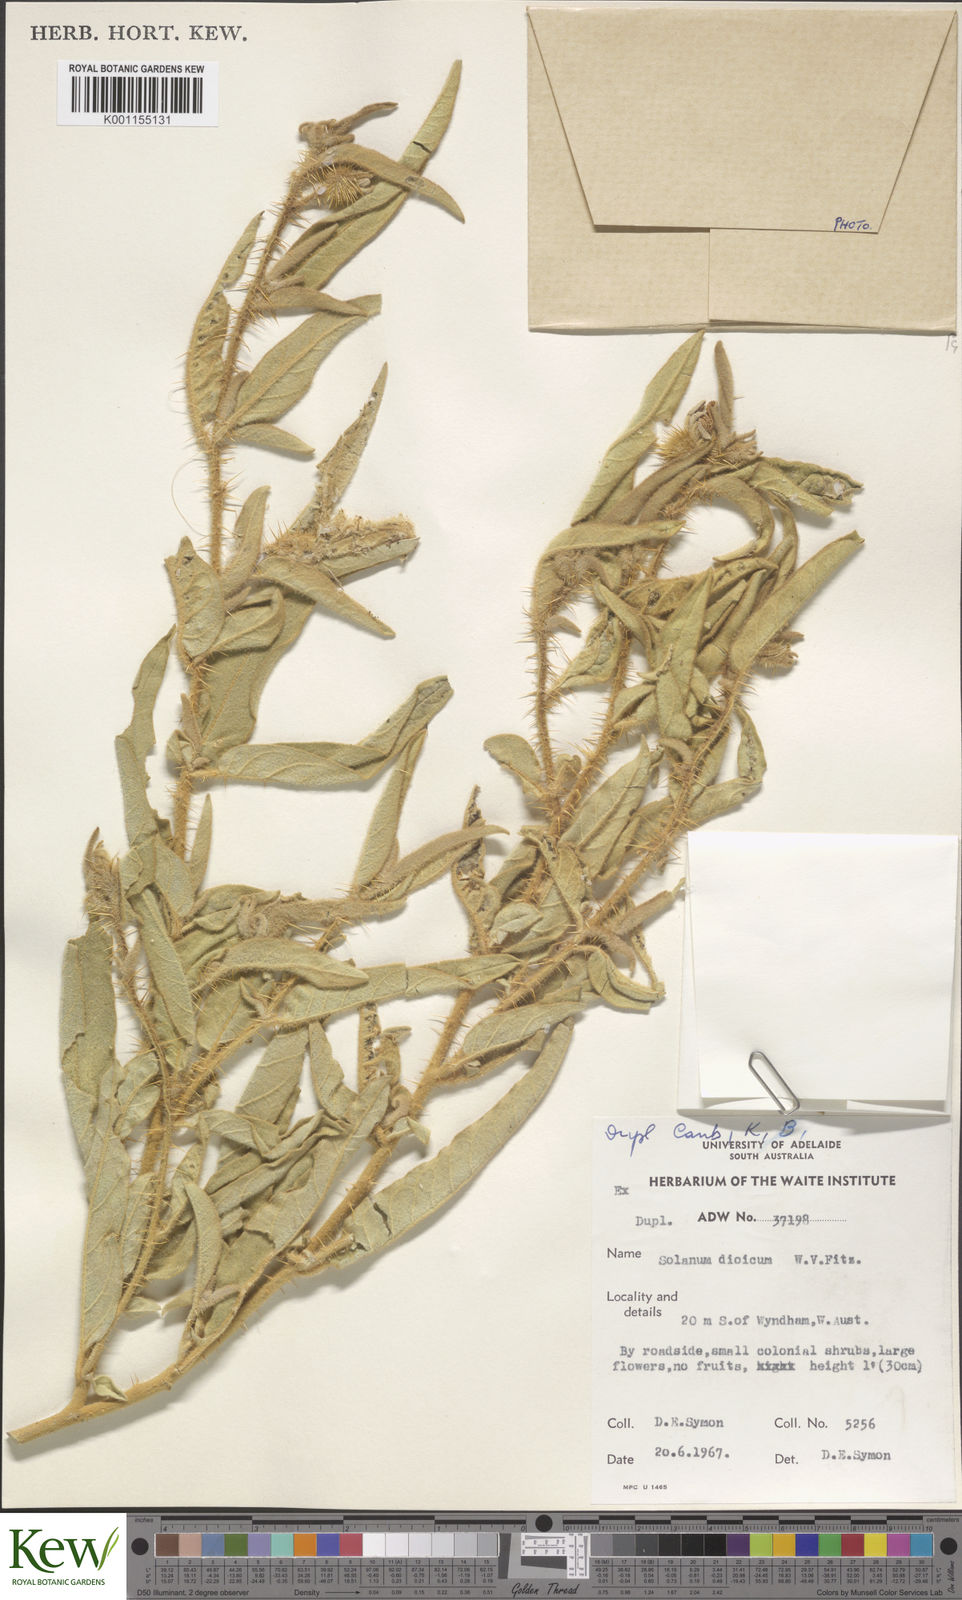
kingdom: Plantae
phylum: Tracheophyta
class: Magnoliopsida
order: Solanales
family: Solanaceae
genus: Solanum
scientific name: Solanum dioicum
